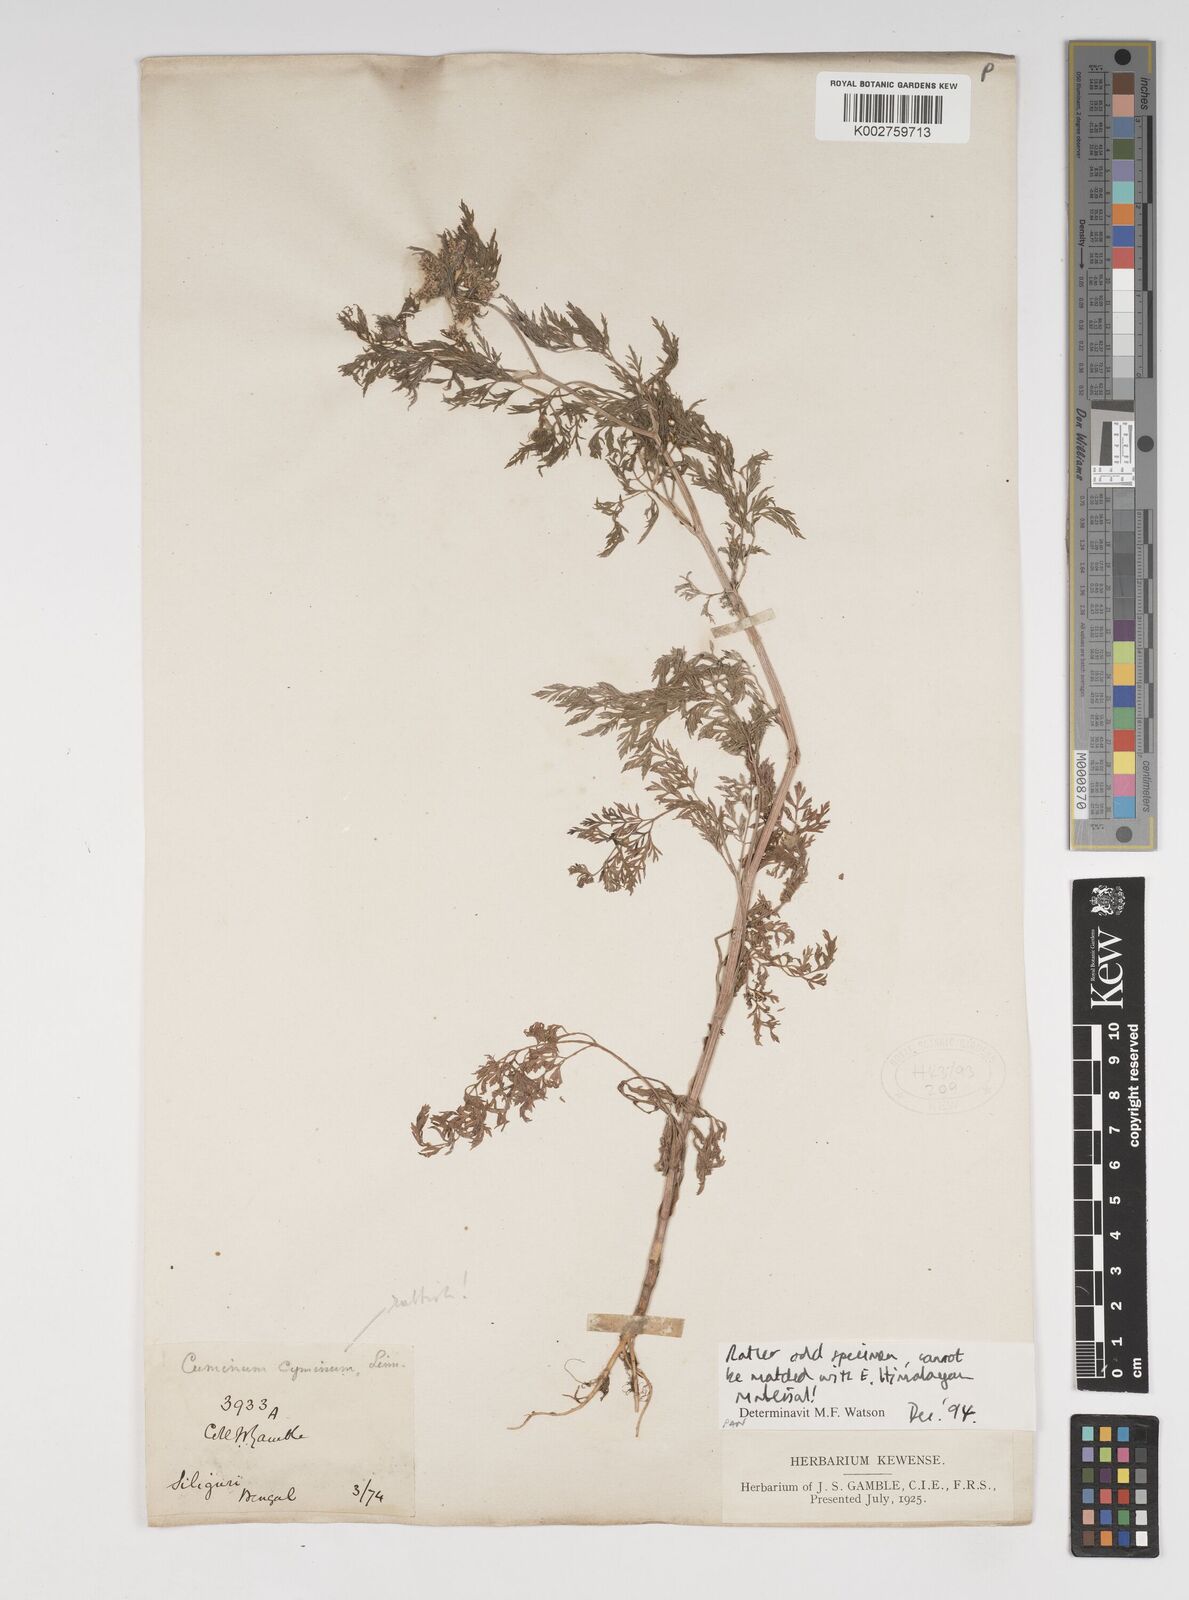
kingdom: Plantae
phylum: Tracheophyta
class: Magnoliopsida
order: Apiales
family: Apiaceae
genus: Selinum
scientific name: Selinum
